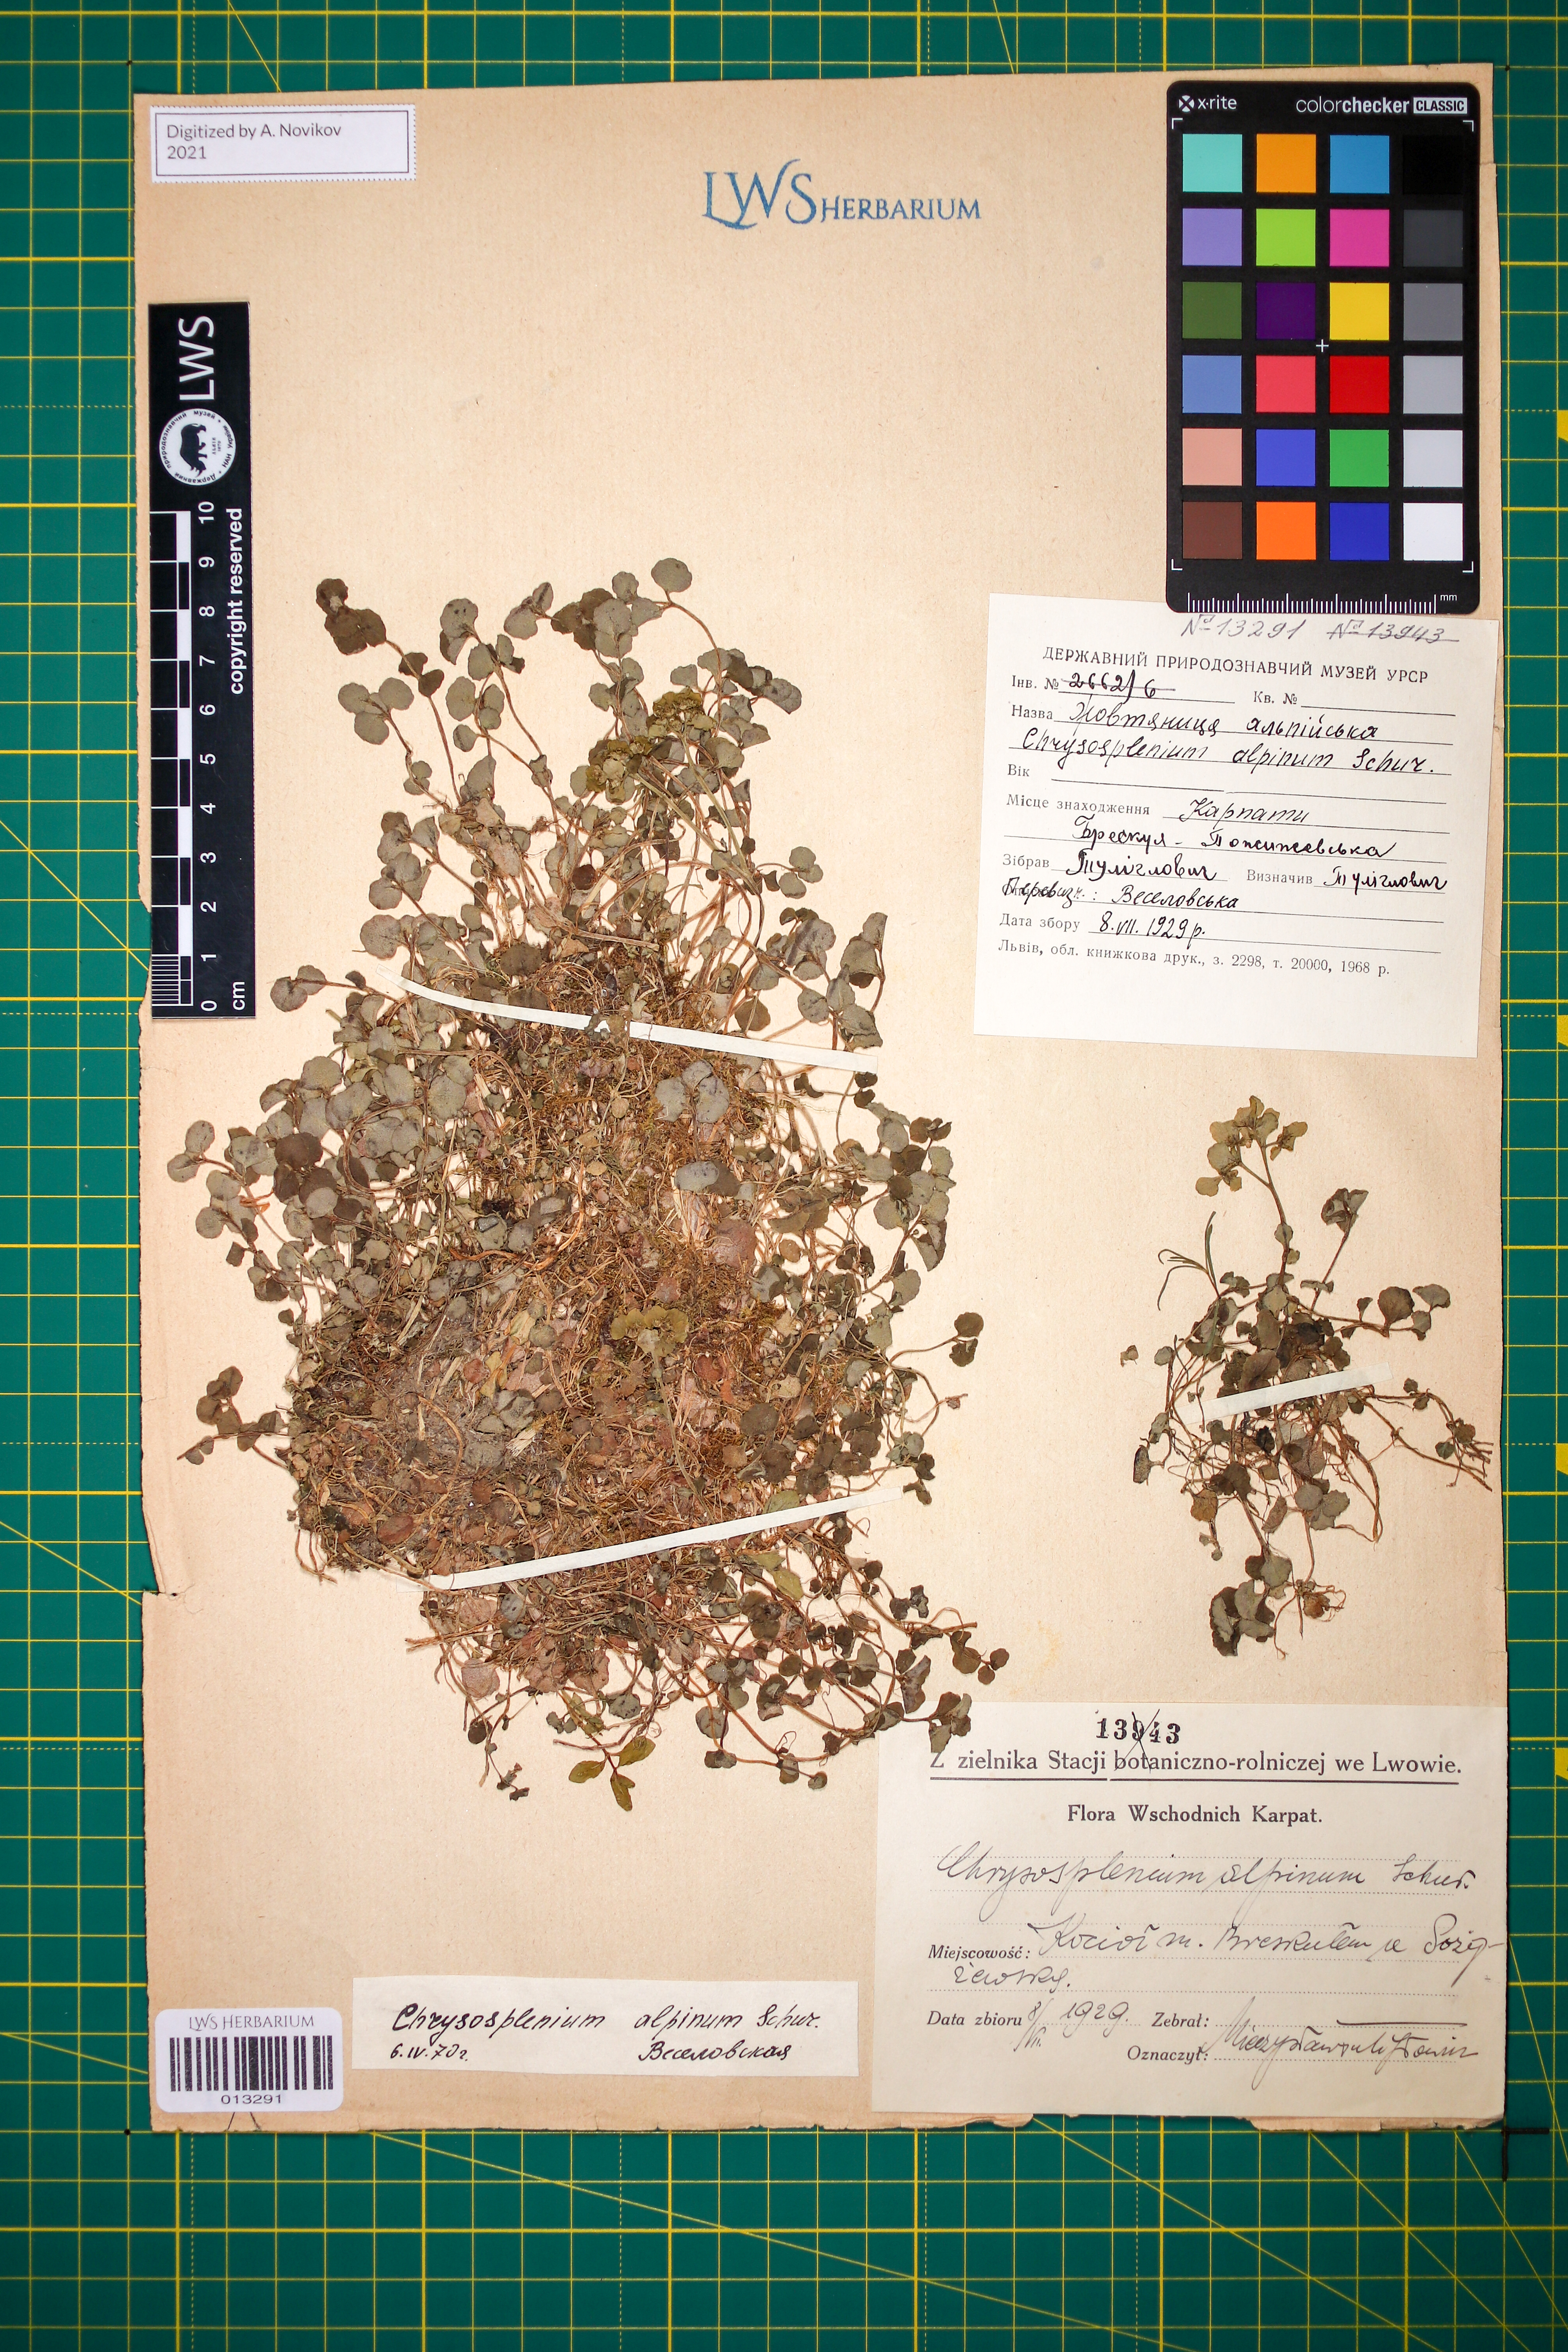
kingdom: Plantae
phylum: Tracheophyta
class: Magnoliopsida
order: Saxifragales
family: Saxifragaceae
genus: Chrysosplenium
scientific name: Chrysosplenium alpinum
